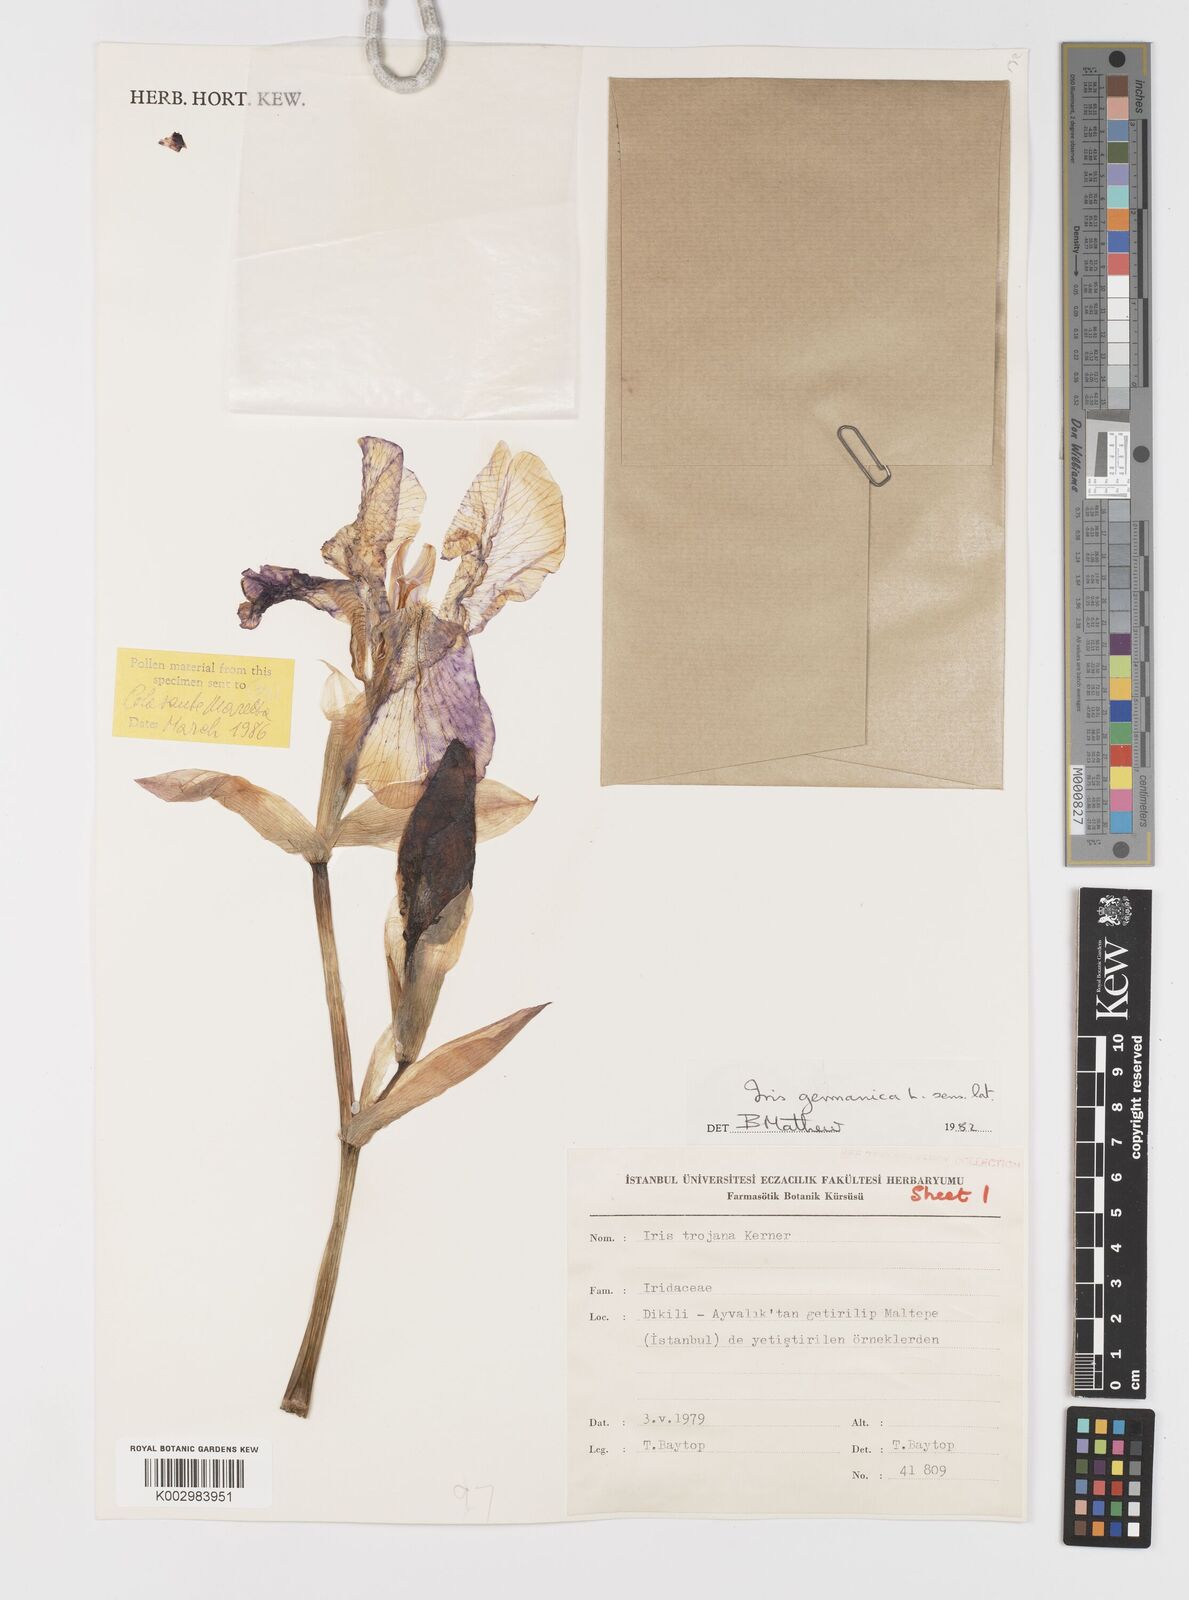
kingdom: Plantae
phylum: Tracheophyta
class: Liliopsida
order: Asparagales
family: Iridaceae
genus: Iris
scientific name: Iris germanica
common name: German iris
